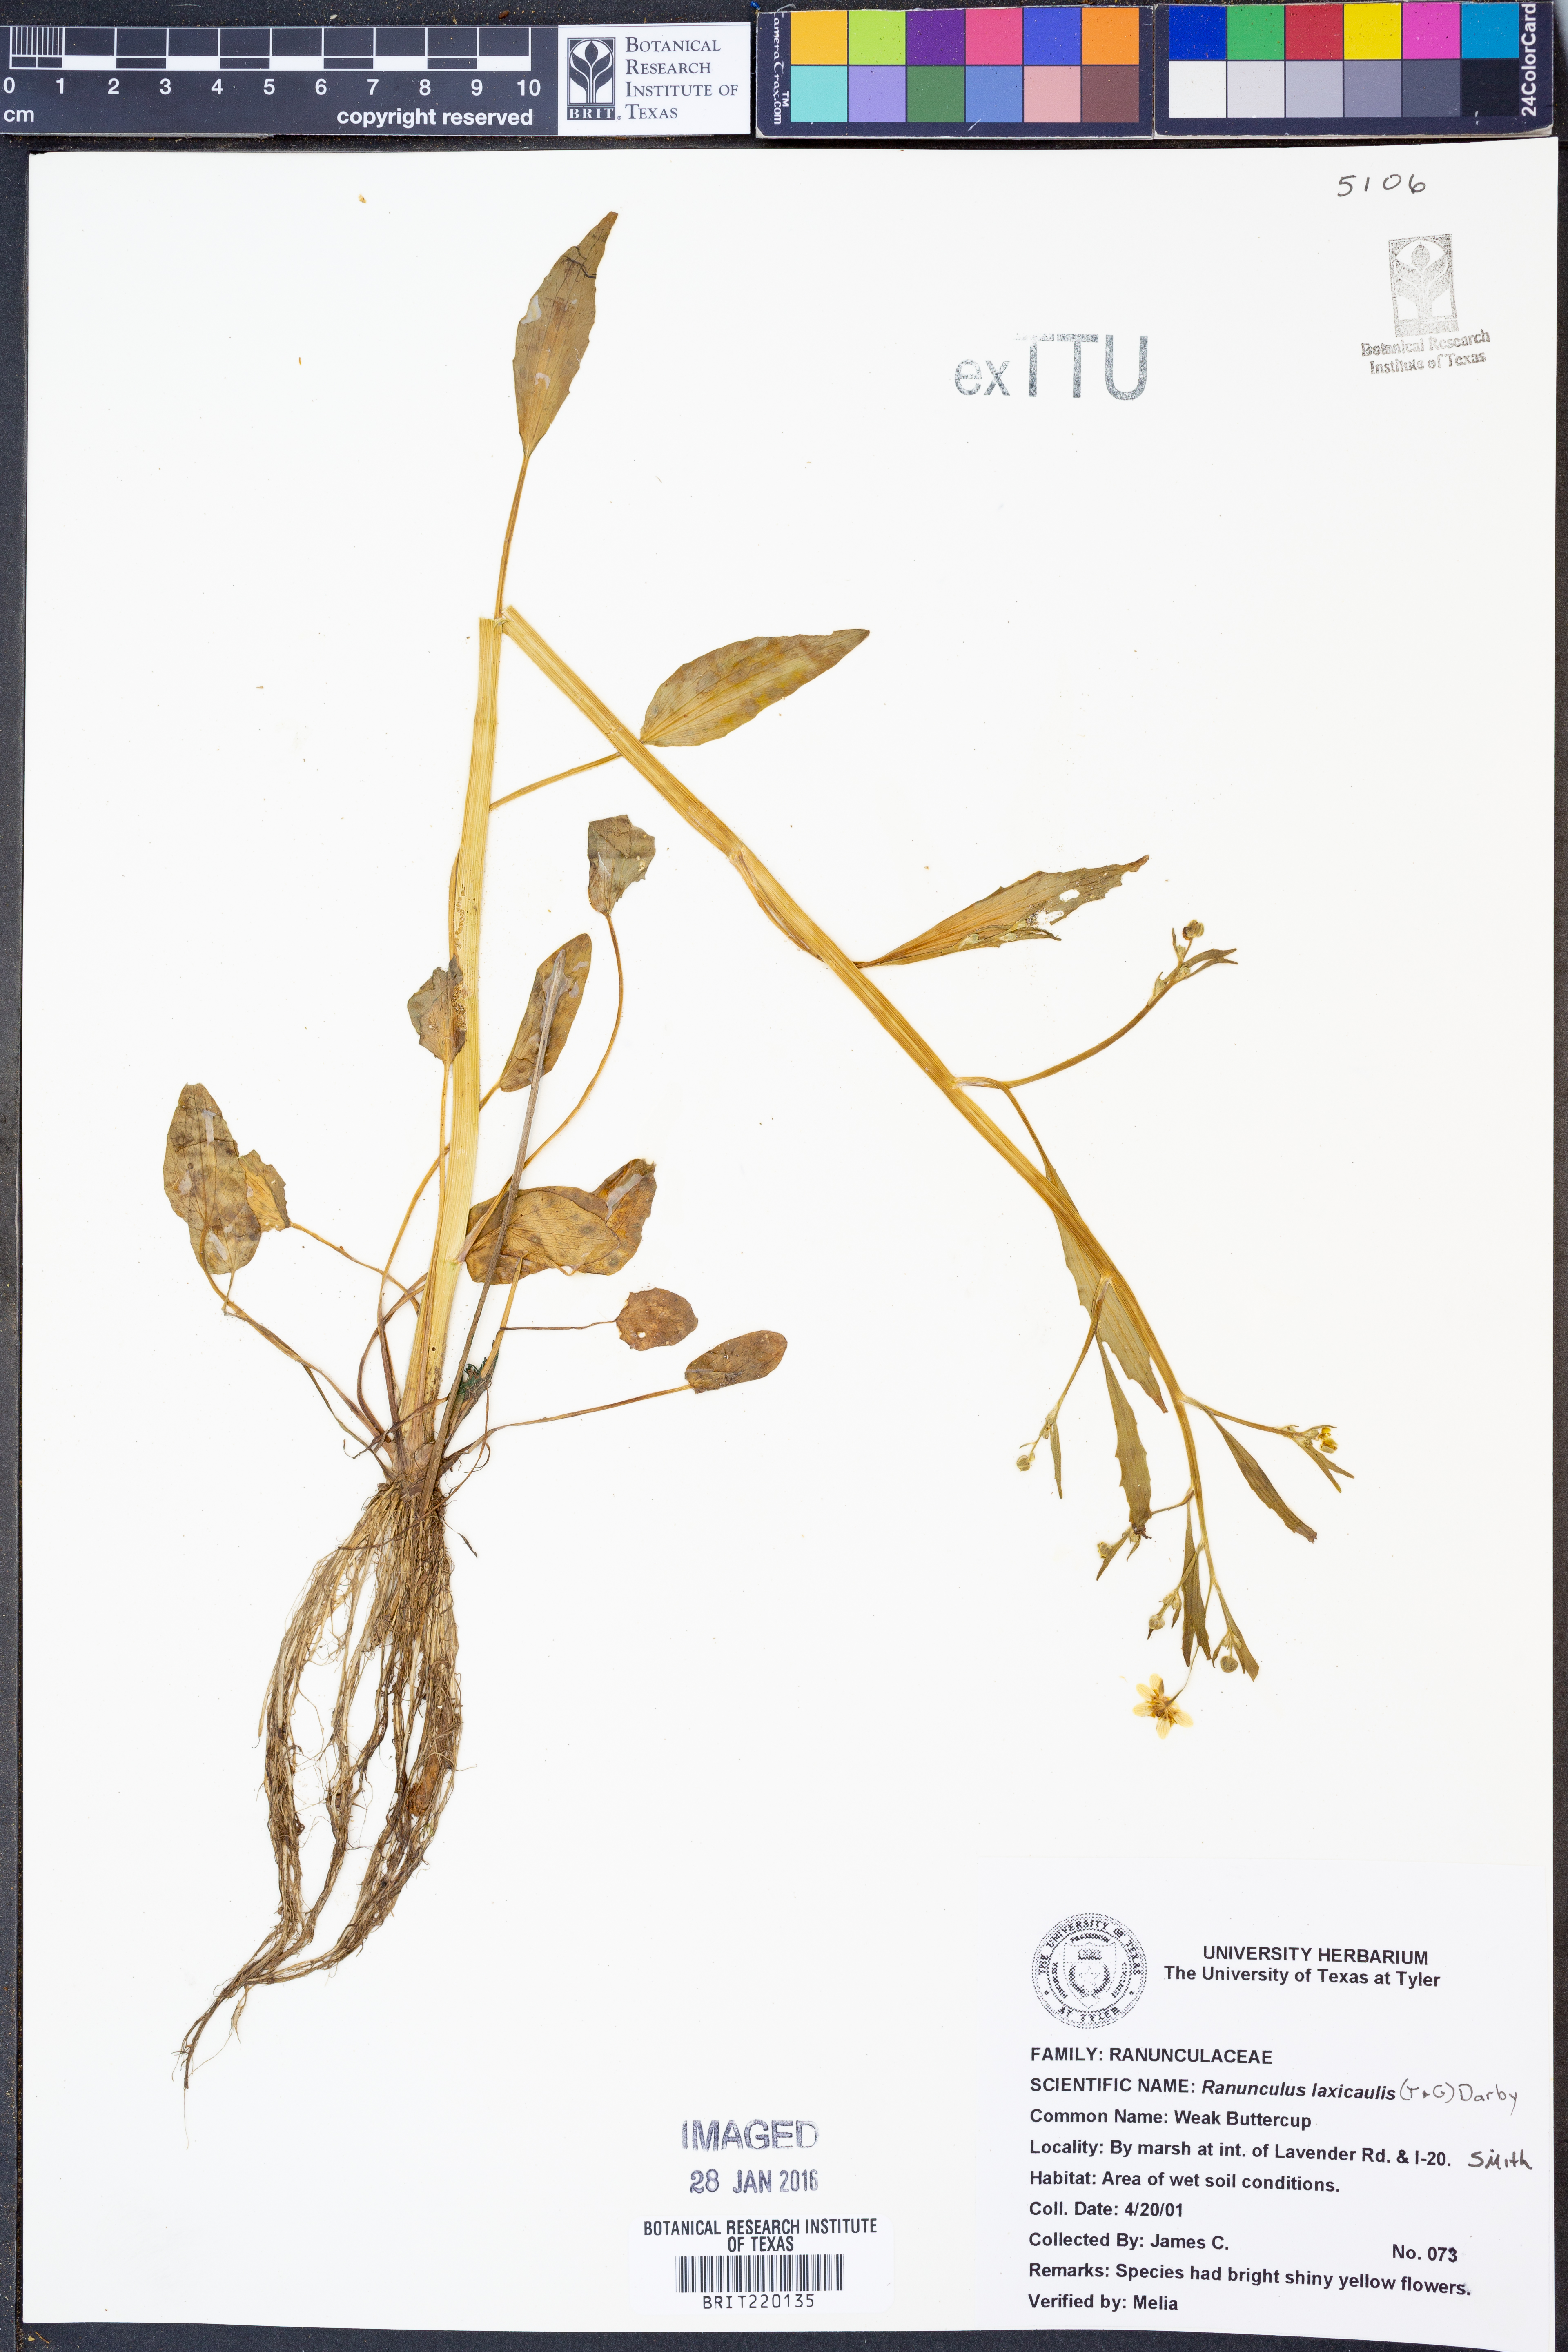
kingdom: Plantae
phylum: Tracheophyta
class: Magnoliopsida
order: Ranunculales
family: Ranunculaceae
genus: Ranunculus
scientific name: Ranunculus laxicaulis
